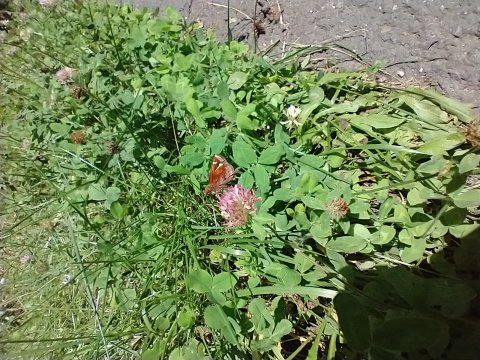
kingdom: Animalia
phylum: Arthropoda
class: Insecta
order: Lepidoptera
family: Hesperiidae
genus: Lon
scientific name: Lon zabulon
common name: Zabulon Skipper
